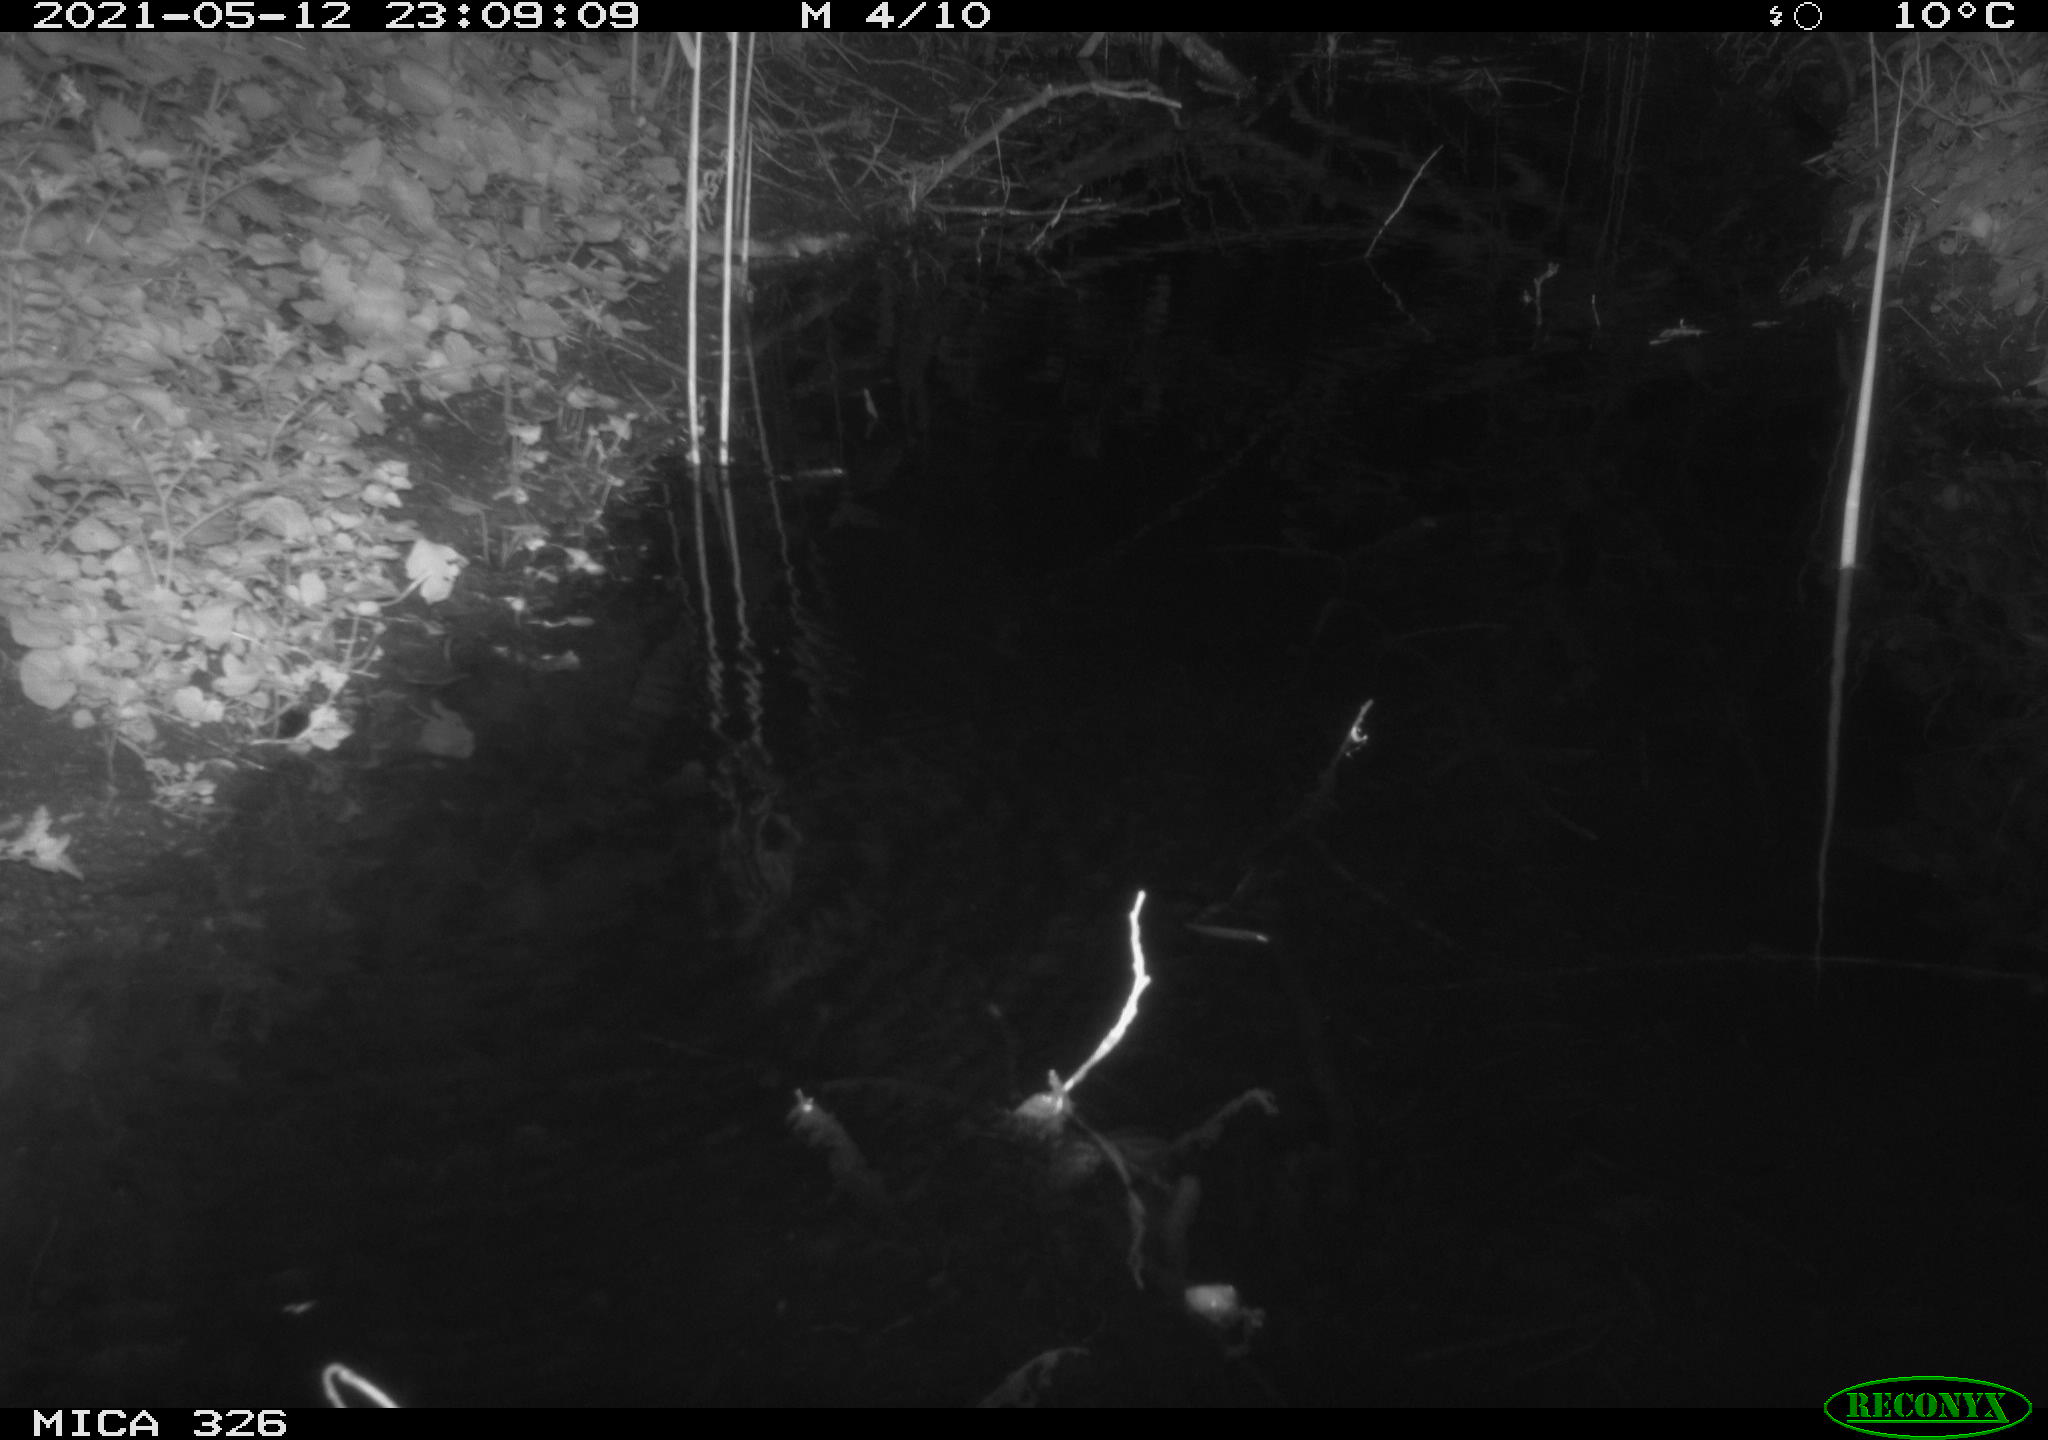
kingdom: Animalia
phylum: Chordata
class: Mammalia
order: Rodentia
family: Muridae
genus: Rattus
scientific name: Rattus norvegicus
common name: Brown rat
